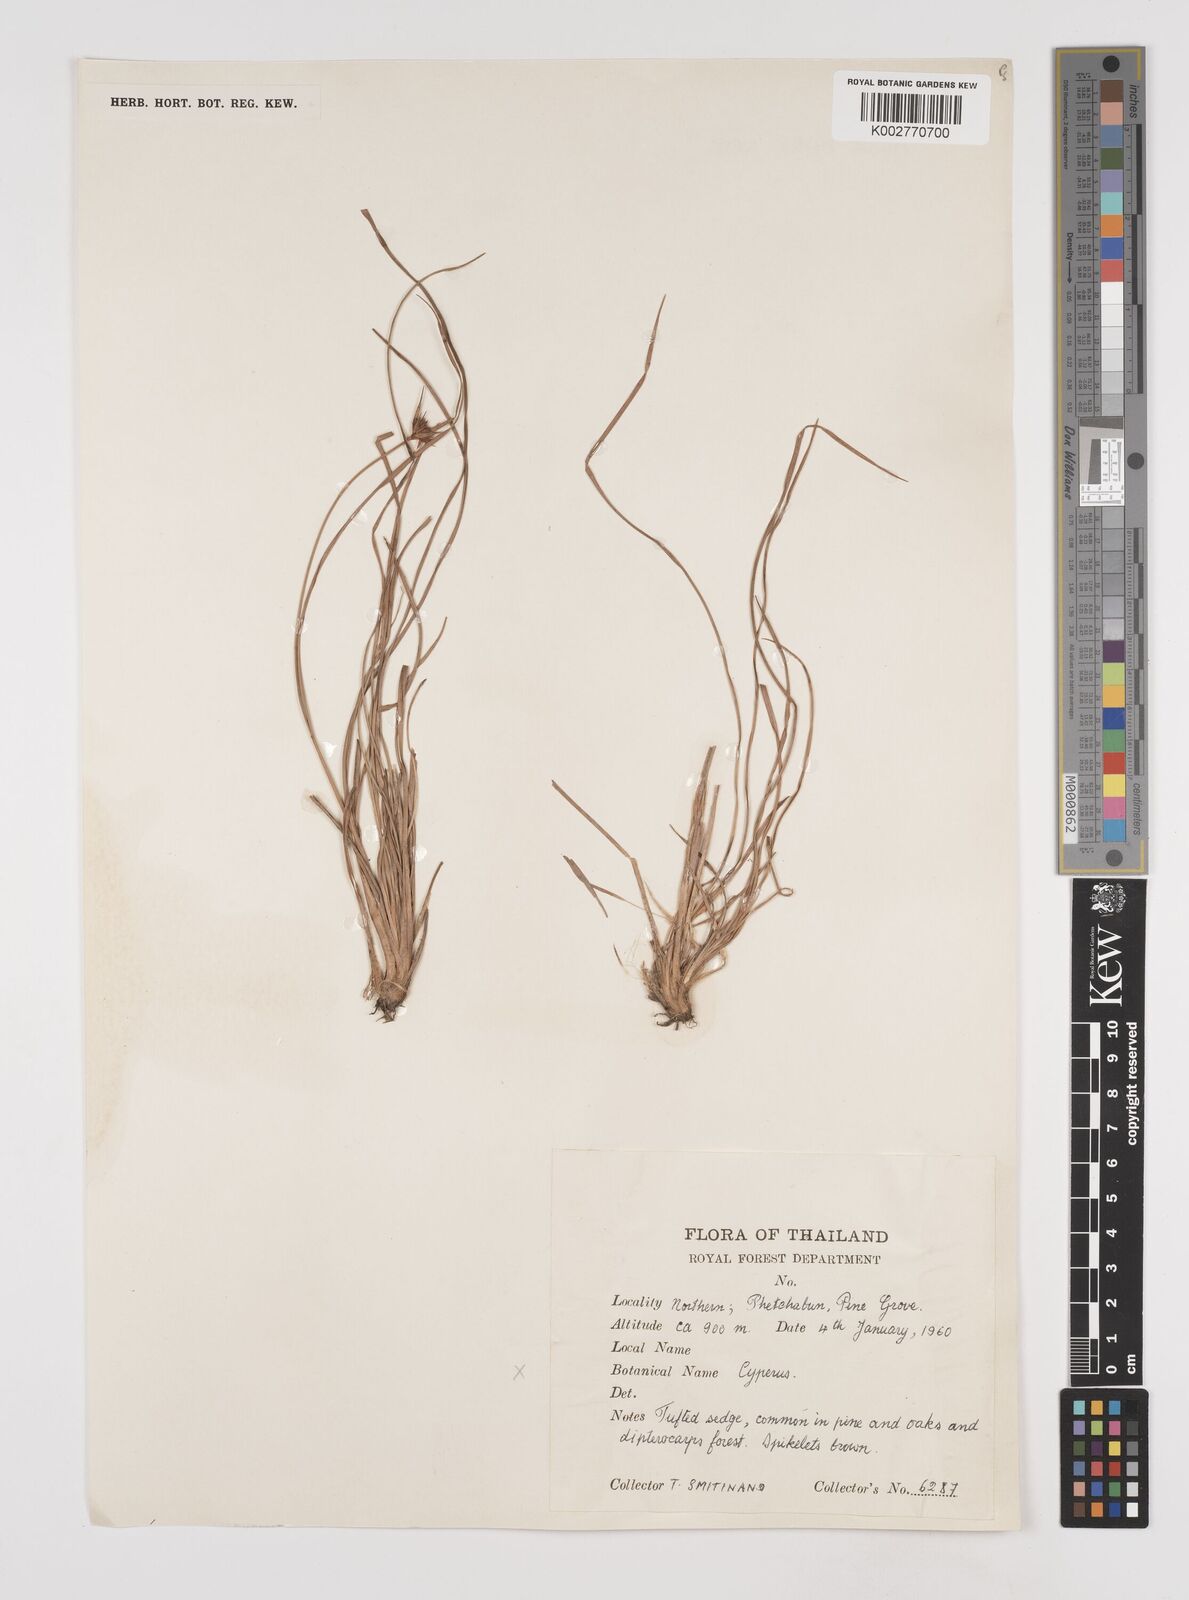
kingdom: Plantae
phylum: Tracheophyta
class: Liliopsida
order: Poales
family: Cyperaceae
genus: Rhynchospora
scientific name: Rhynchospora
